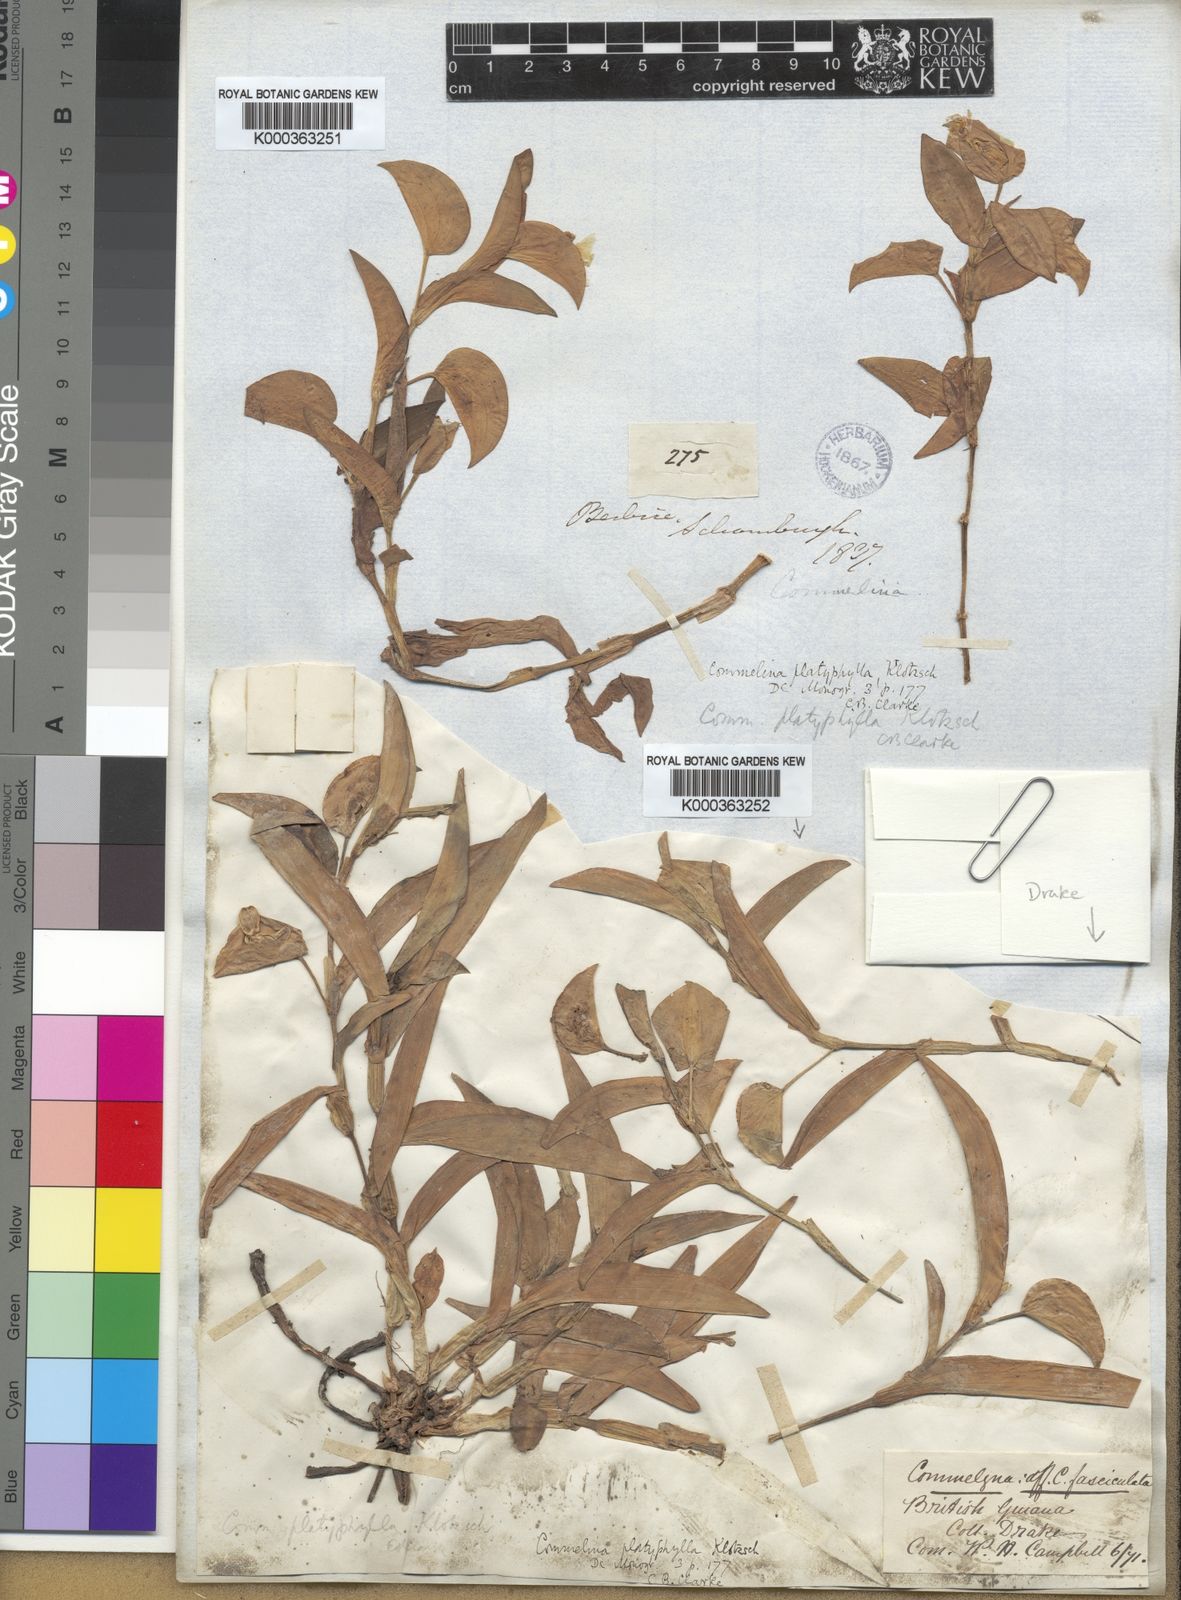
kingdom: Plantae
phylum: Tracheophyta
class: Liliopsida
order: Commelinales
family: Commelinaceae
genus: Commelina
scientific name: Commelina platyphylla
